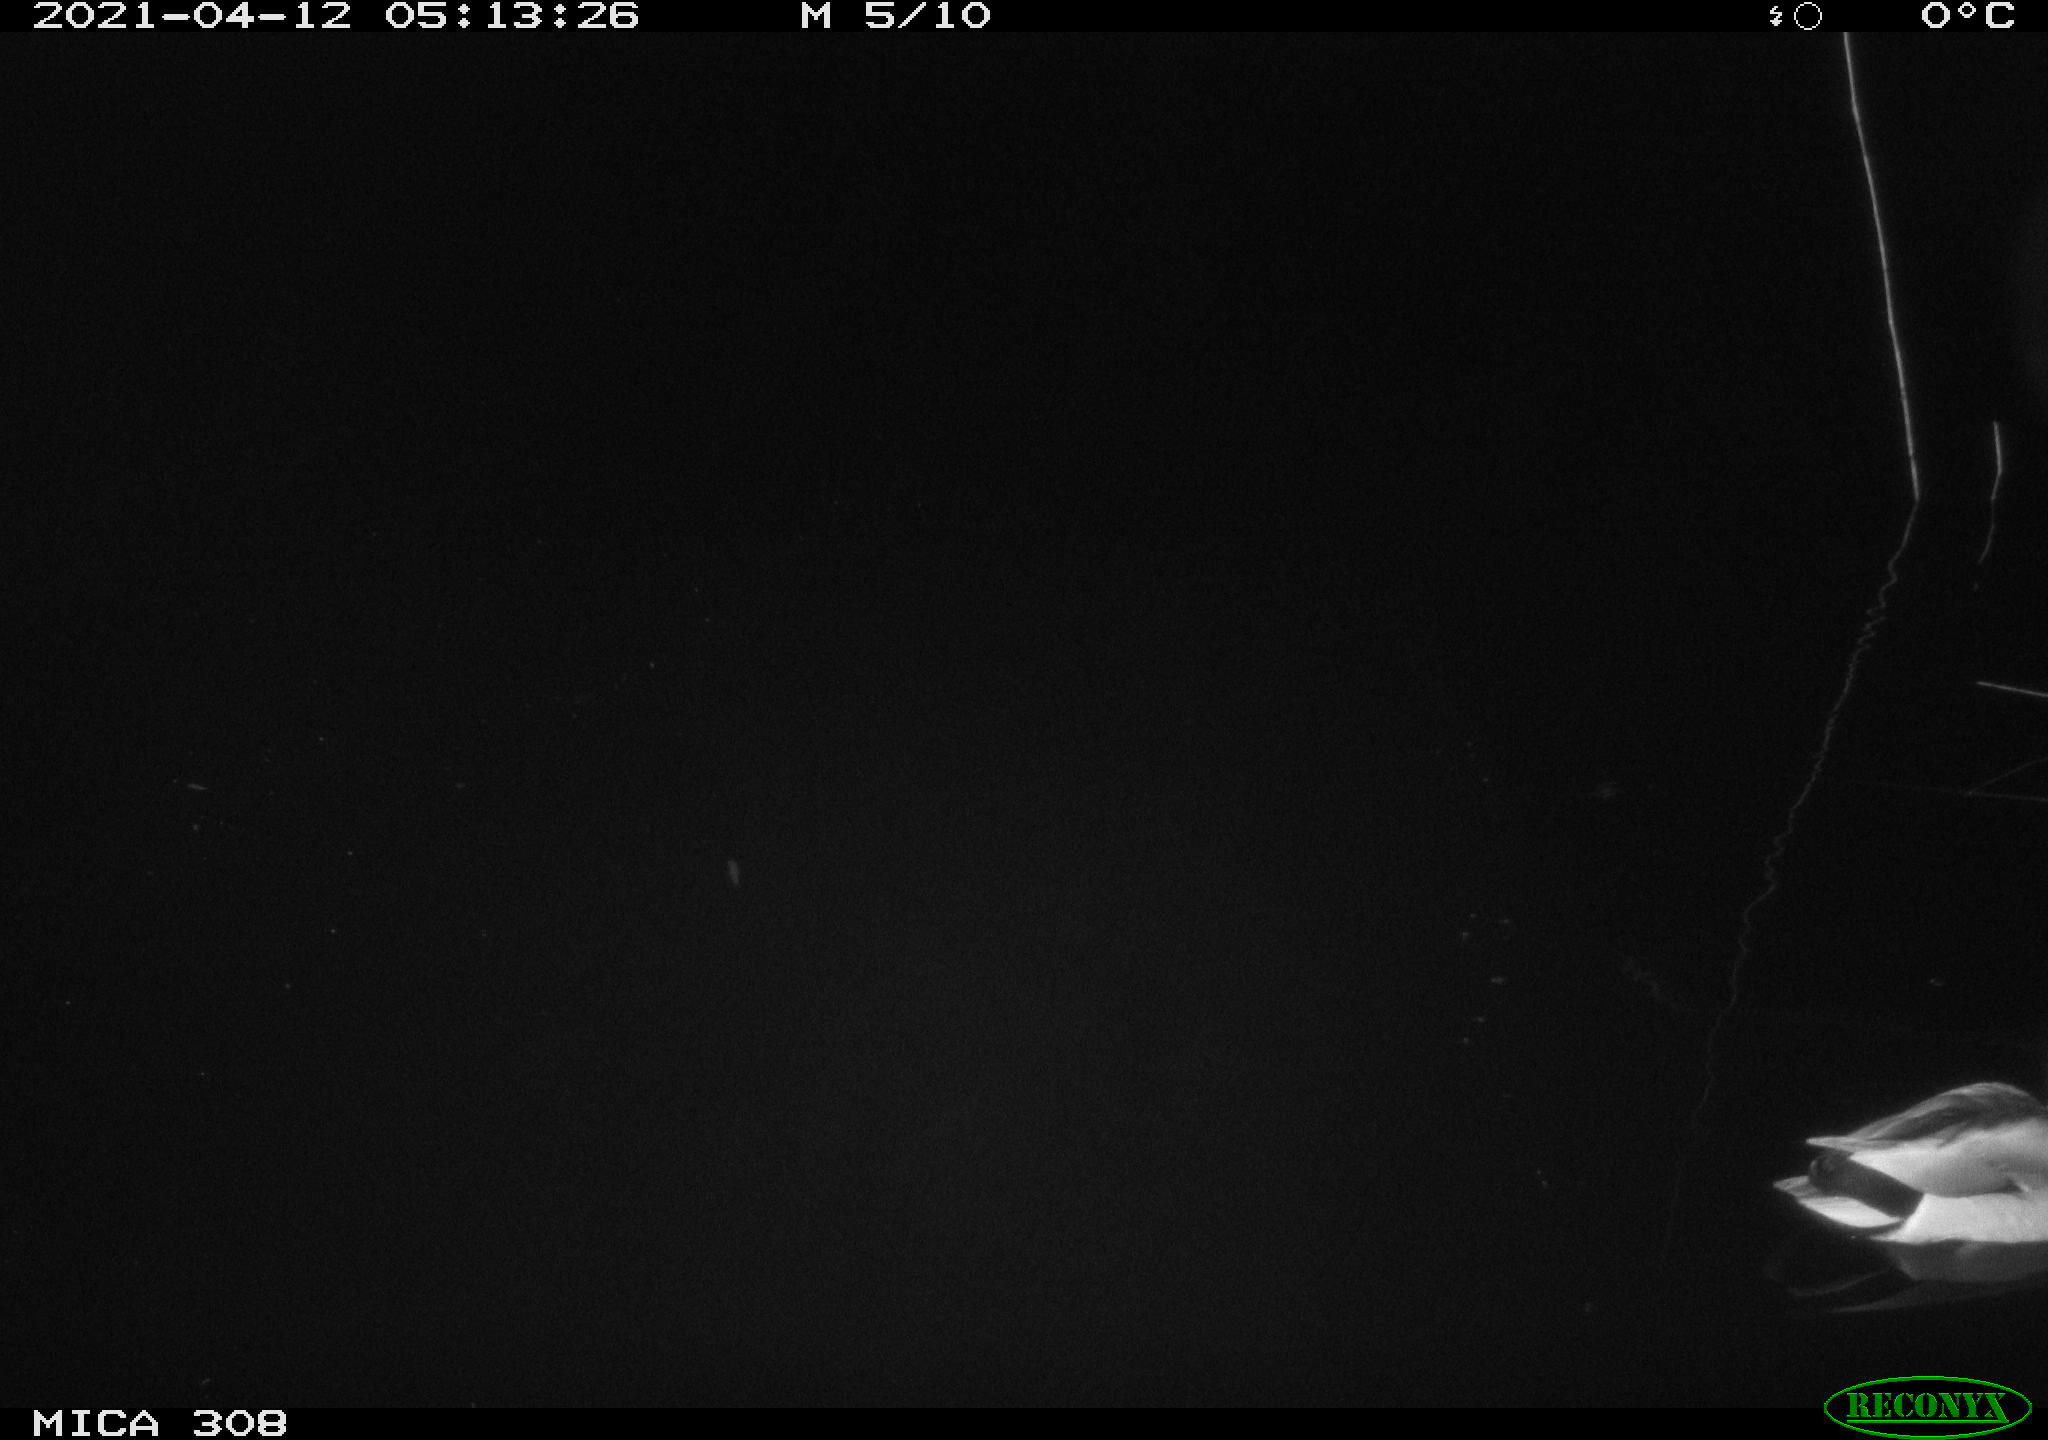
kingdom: Animalia
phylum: Chordata
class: Aves
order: Anseriformes
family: Anatidae
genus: Anas
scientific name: Anas platyrhynchos
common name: Mallard
